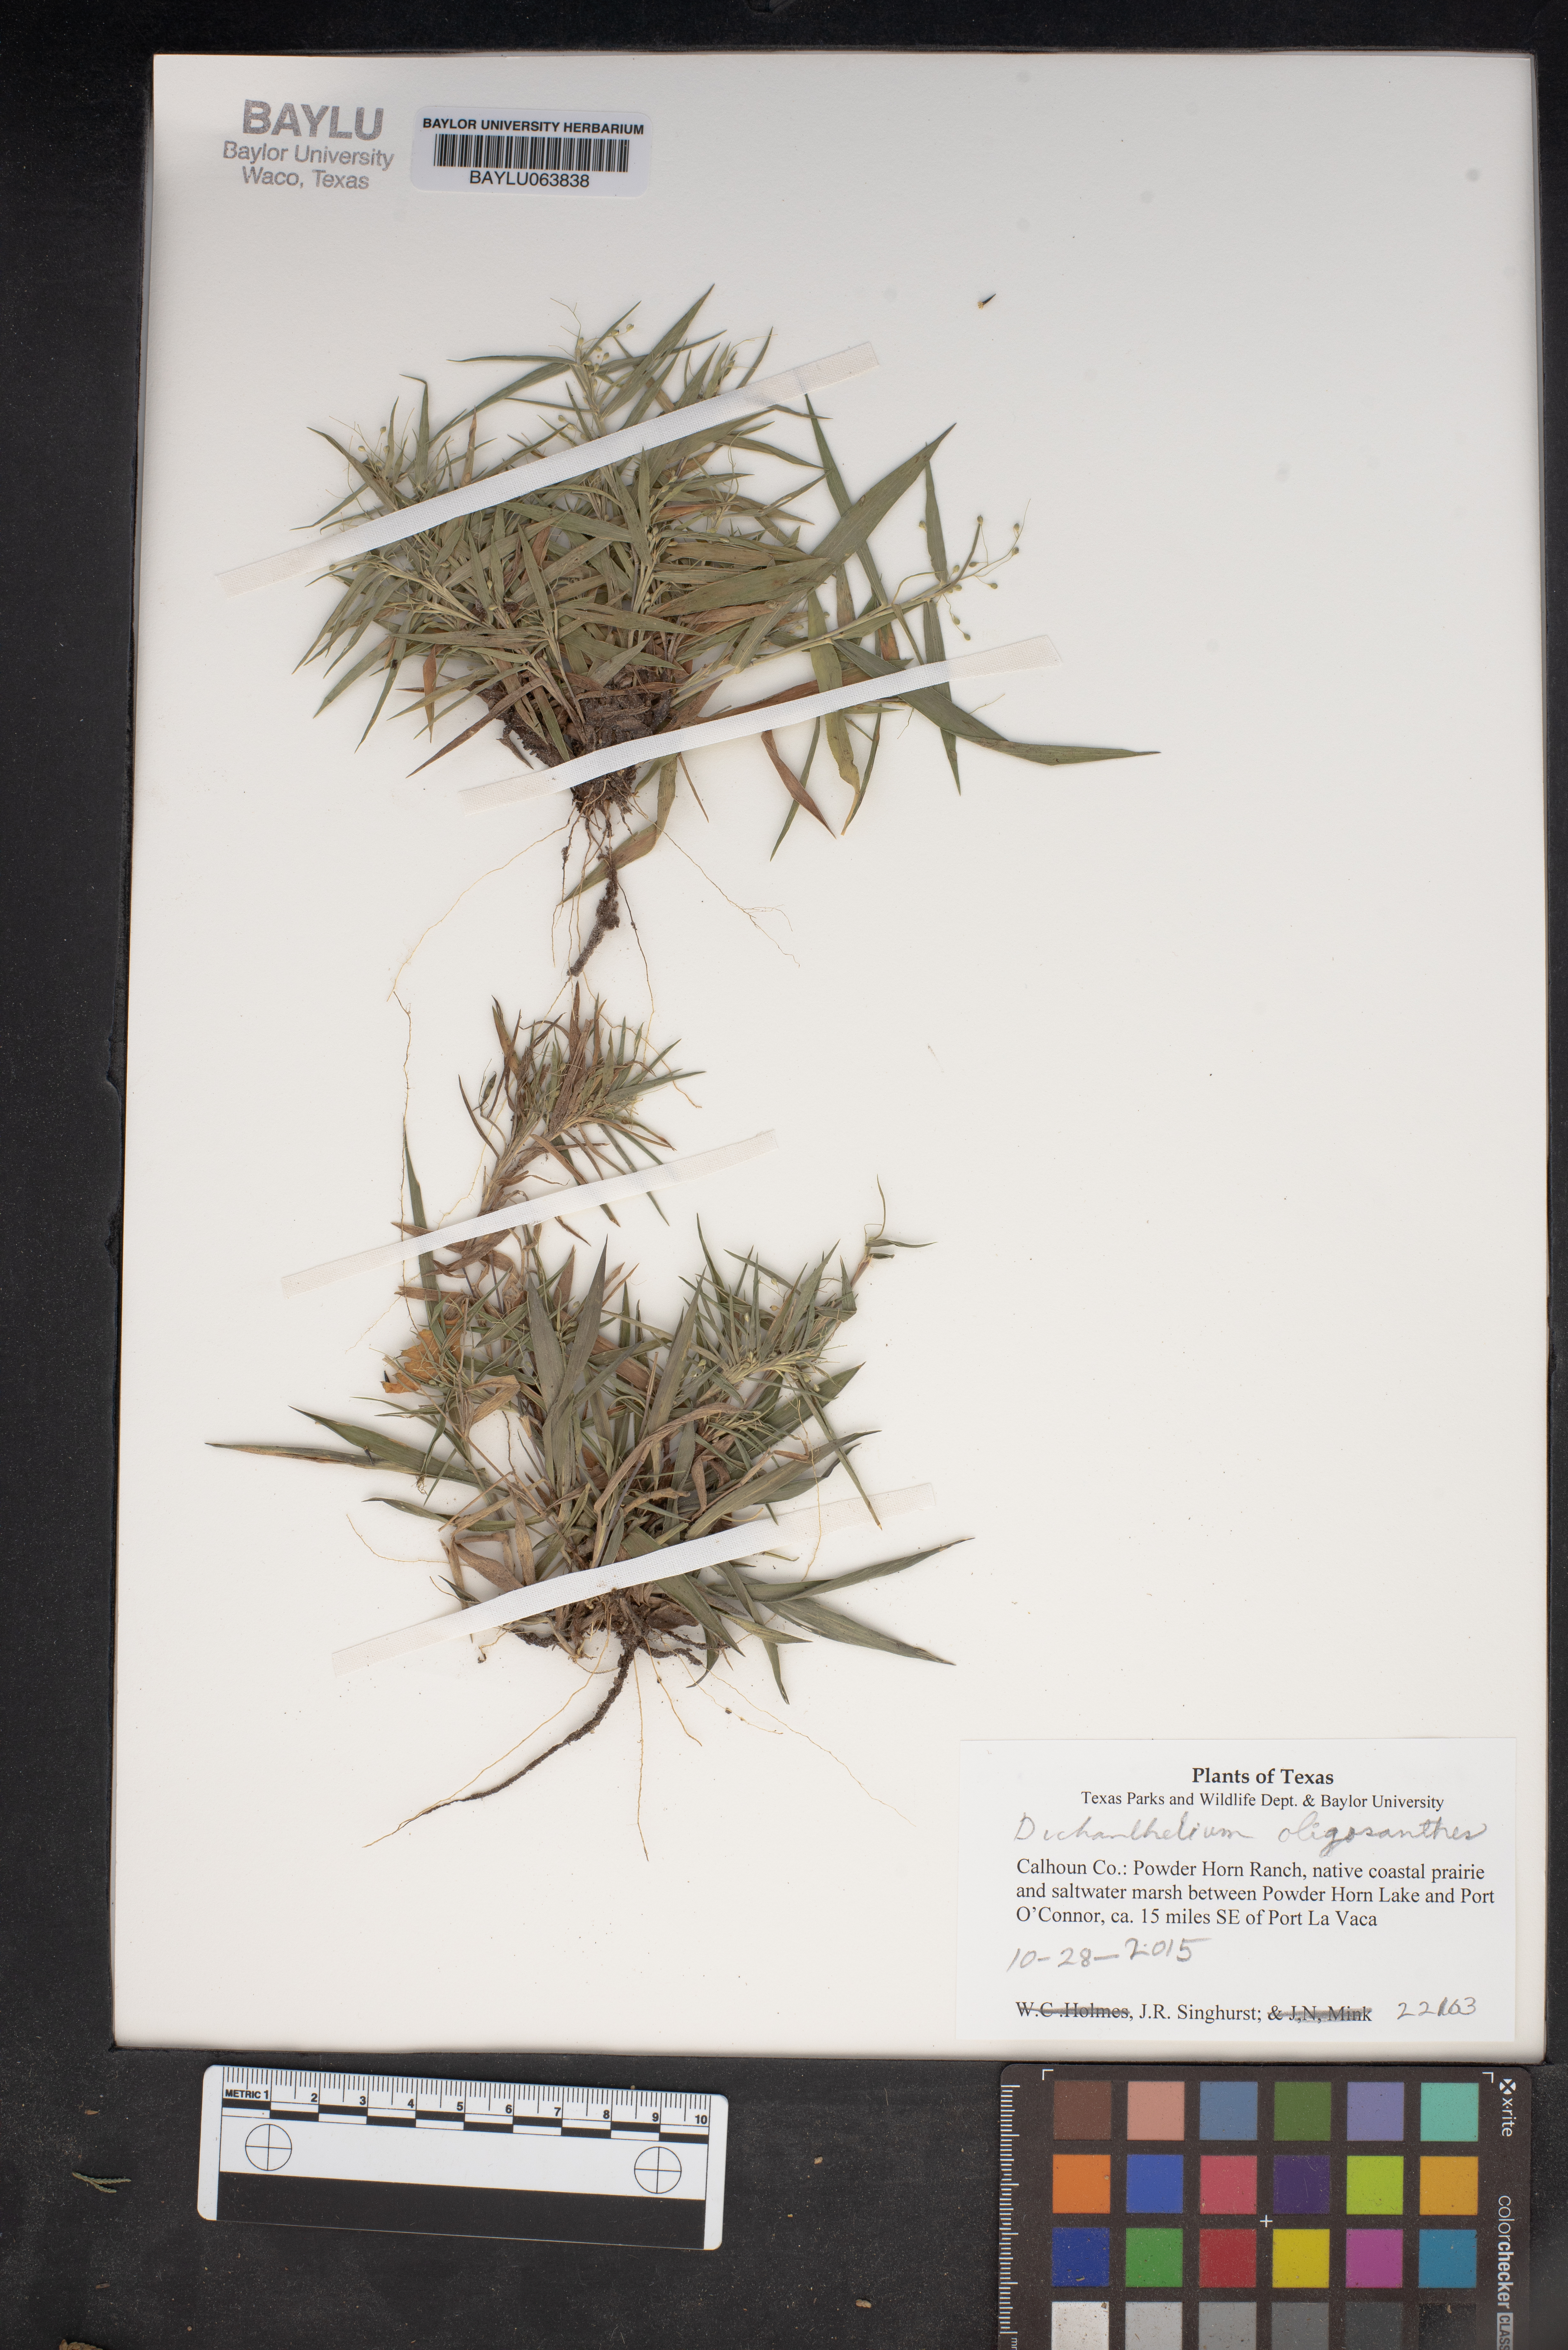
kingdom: Plantae
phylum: Tracheophyta
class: Liliopsida
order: Poales
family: Poaceae
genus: Dichanthelium
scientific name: Dichanthelium oligosanthes
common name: Few-anther obscuregrass
